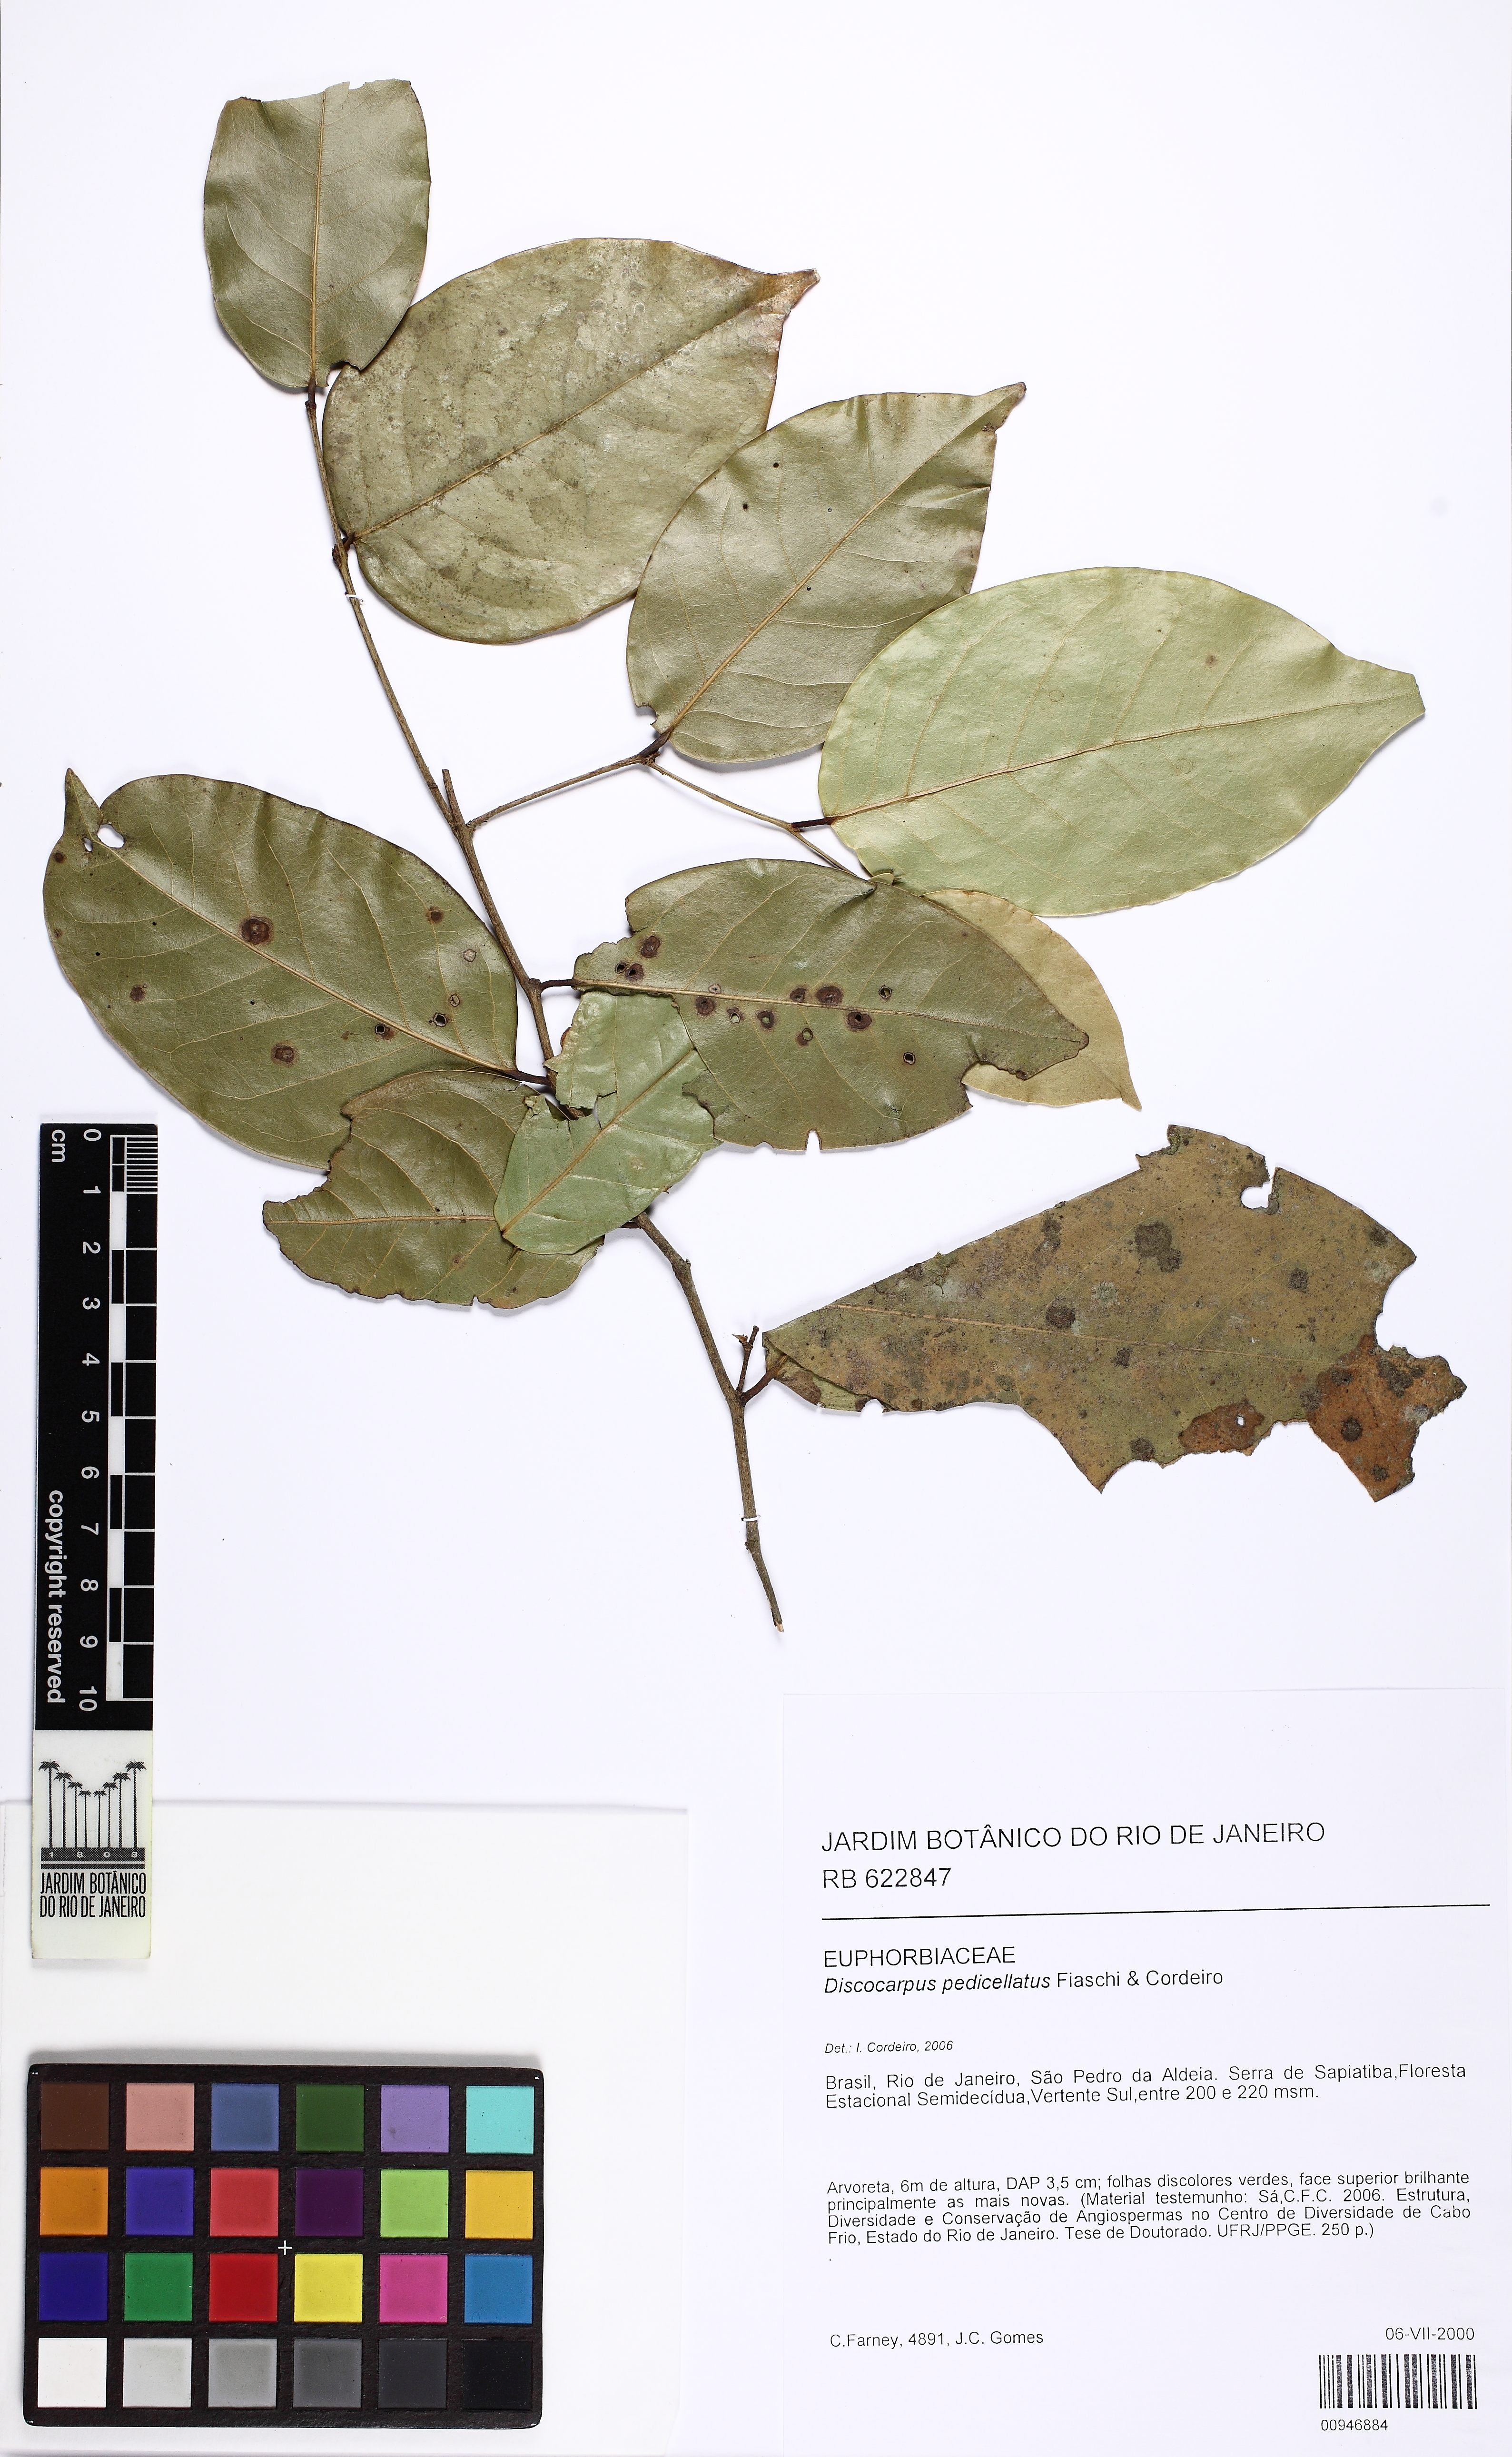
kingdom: Plantae
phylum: Tracheophyta
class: Magnoliopsida
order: Malpighiales
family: Phyllanthaceae
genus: Discocarpus
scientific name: Discocarpus pedicellatus
